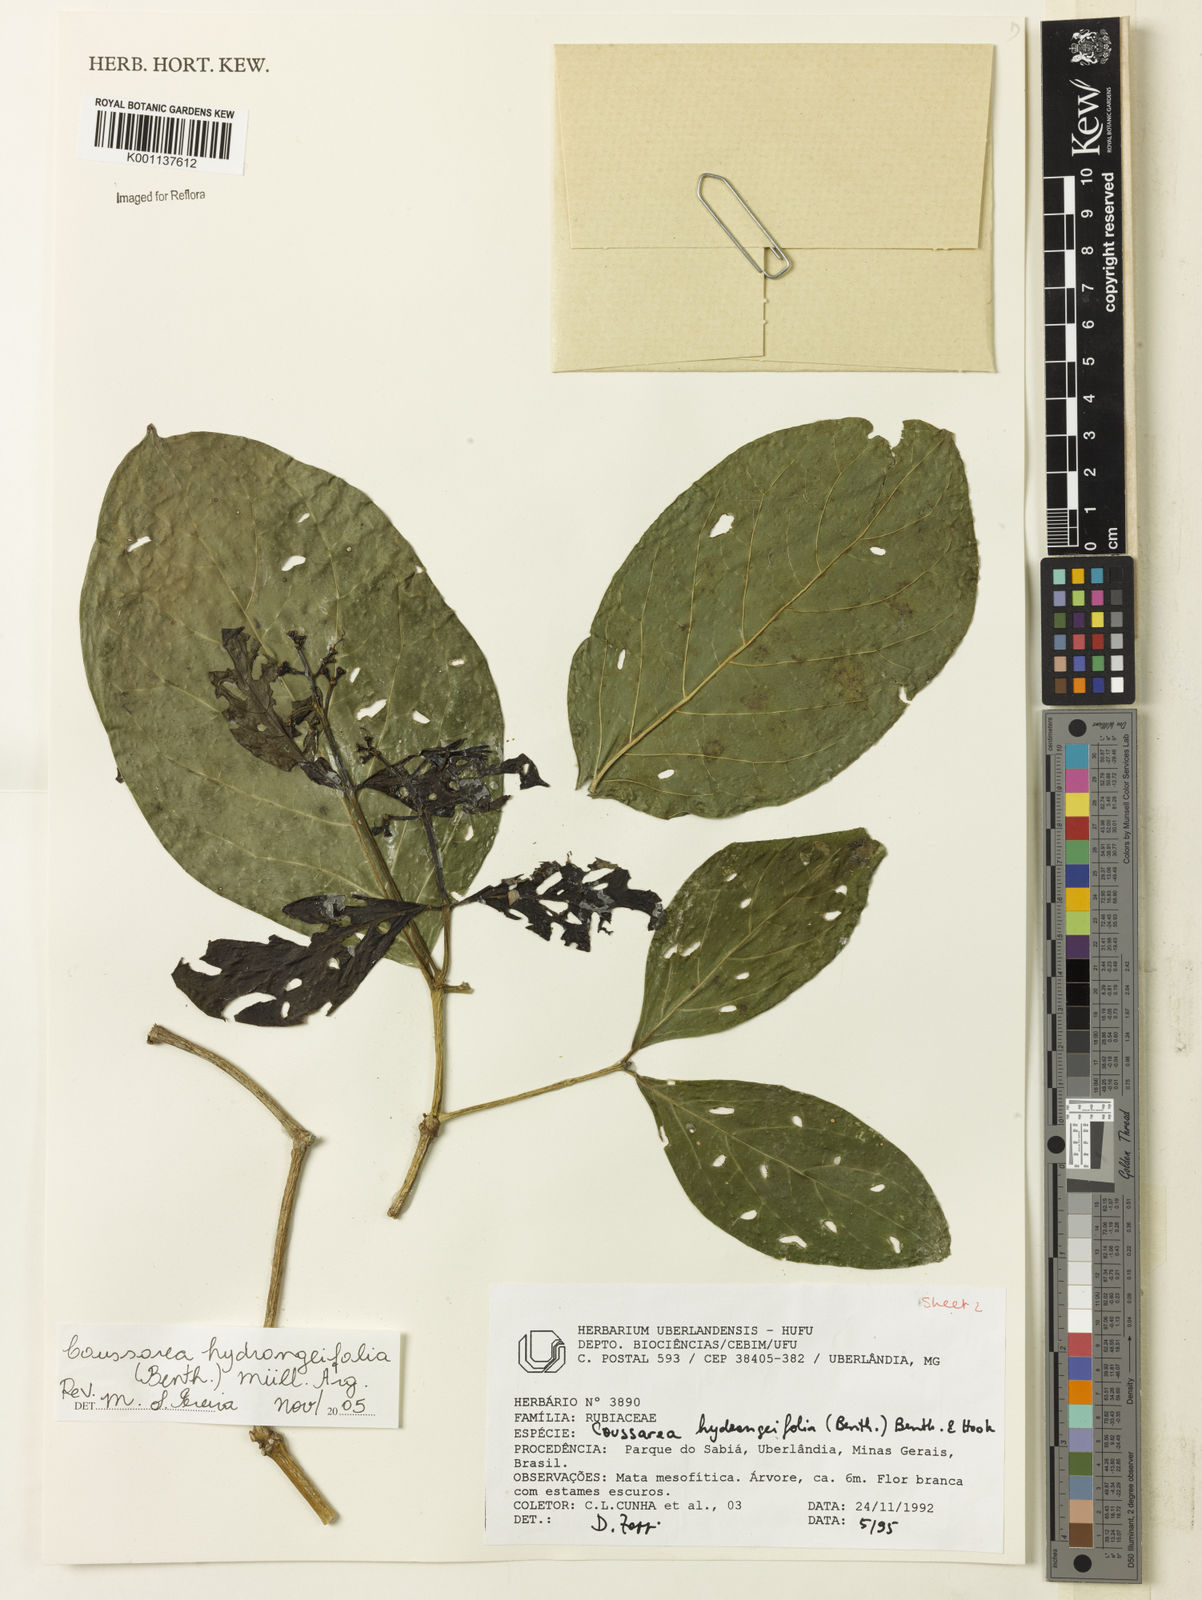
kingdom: Plantae
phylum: Tracheophyta
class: Magnoliopsida
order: Gentianales
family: Rubiaceae
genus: Coussarea
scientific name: Coussarea
